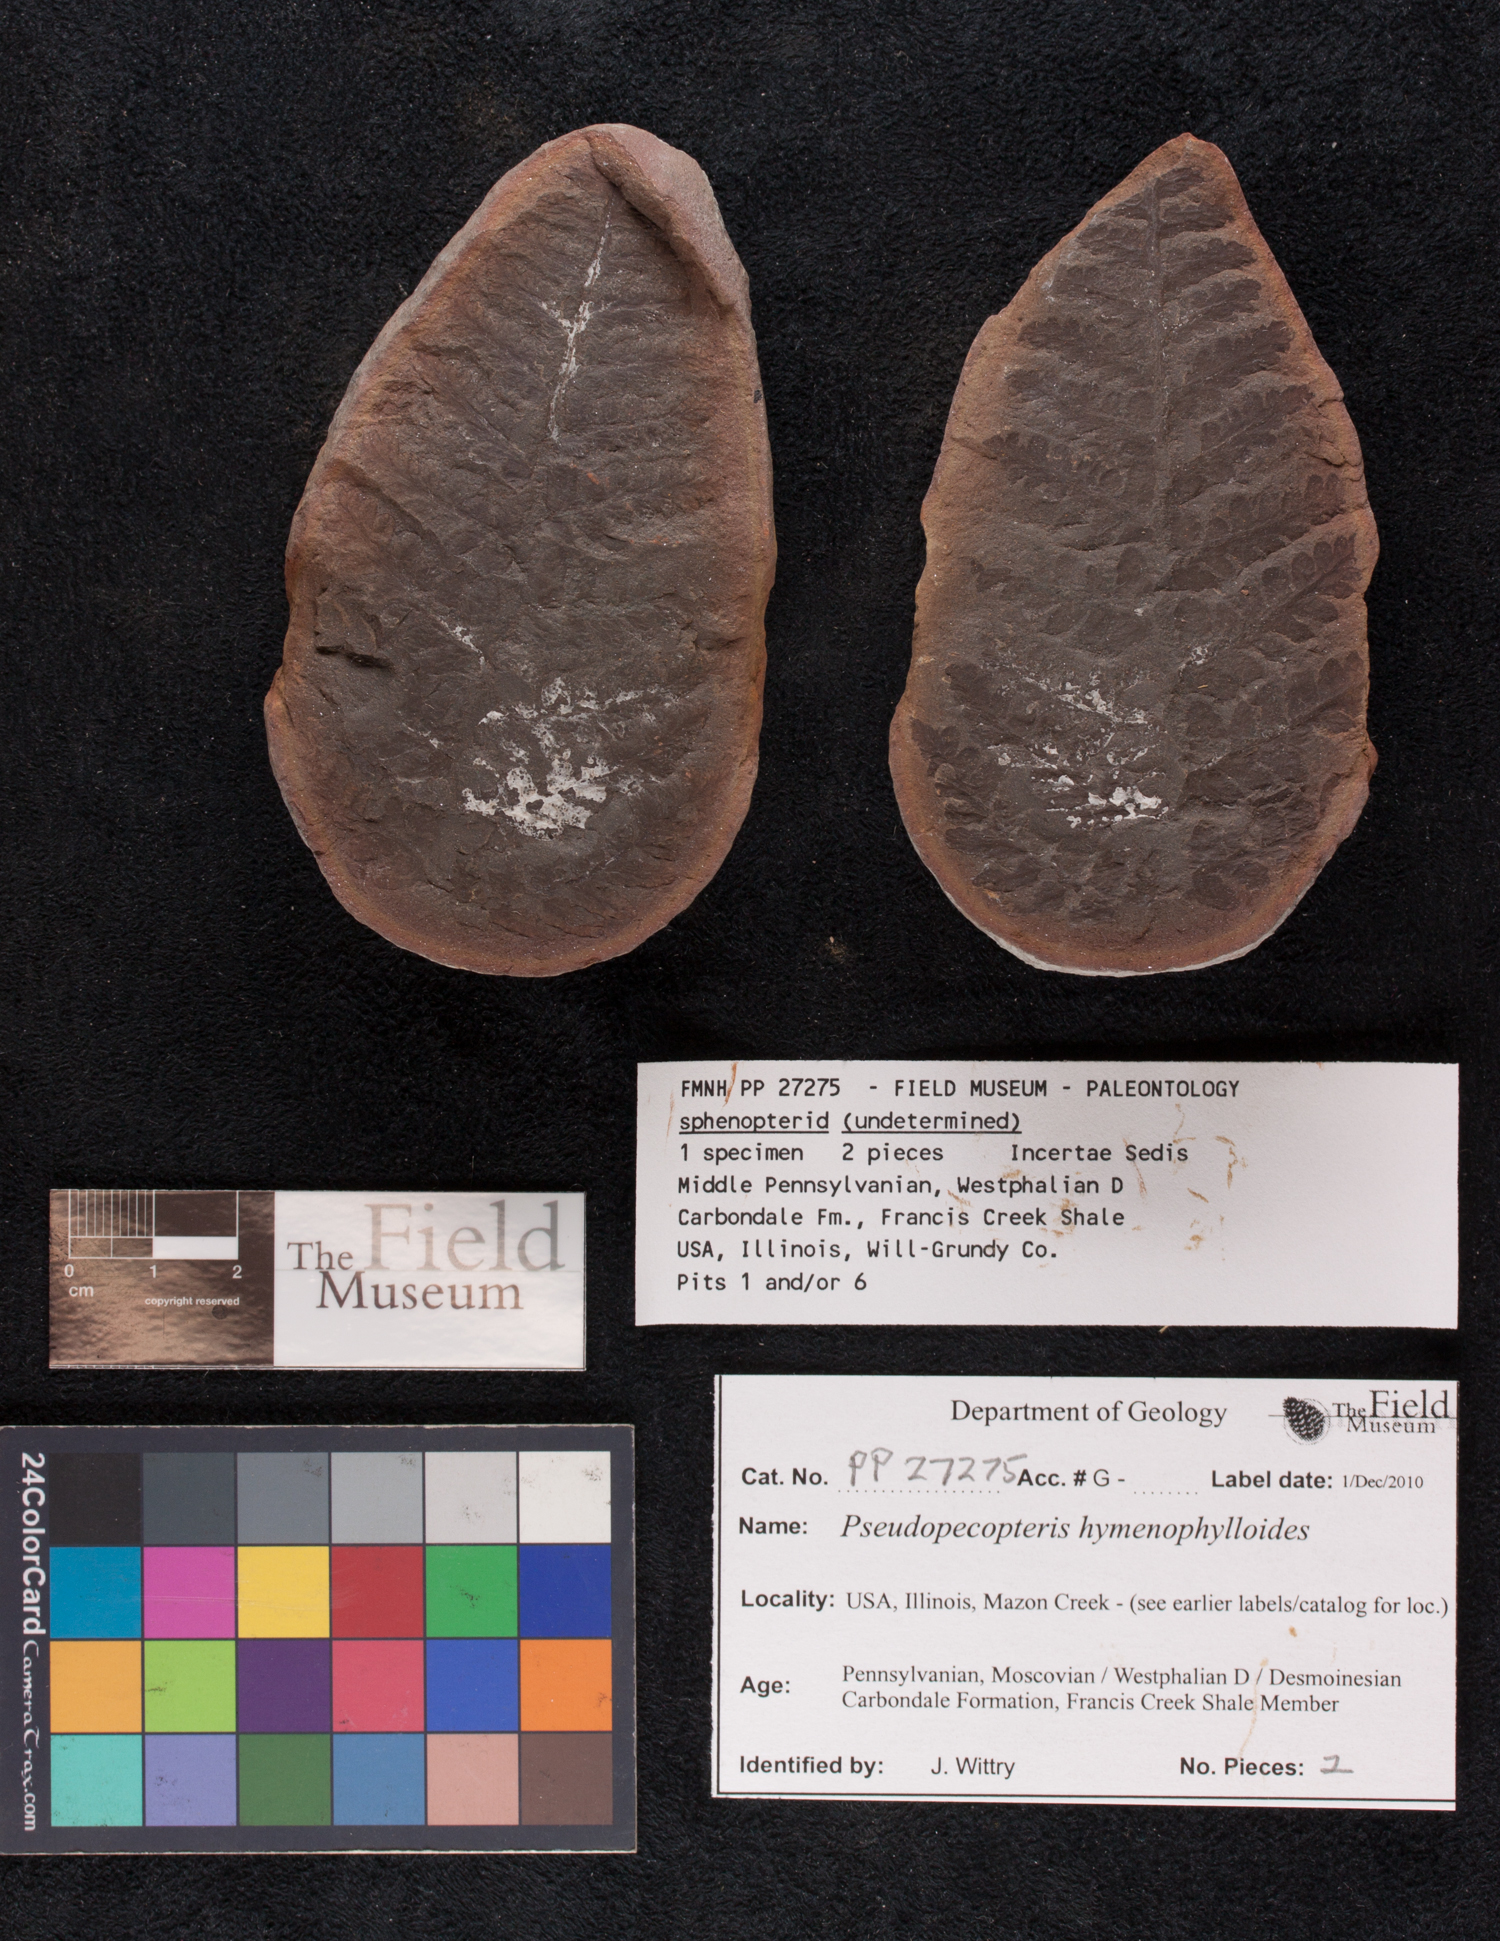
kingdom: Plantae
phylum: Tracheophyta
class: Polypodiopsida
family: Stauropteridaceae
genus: Crossotheca
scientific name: Crossotheca
